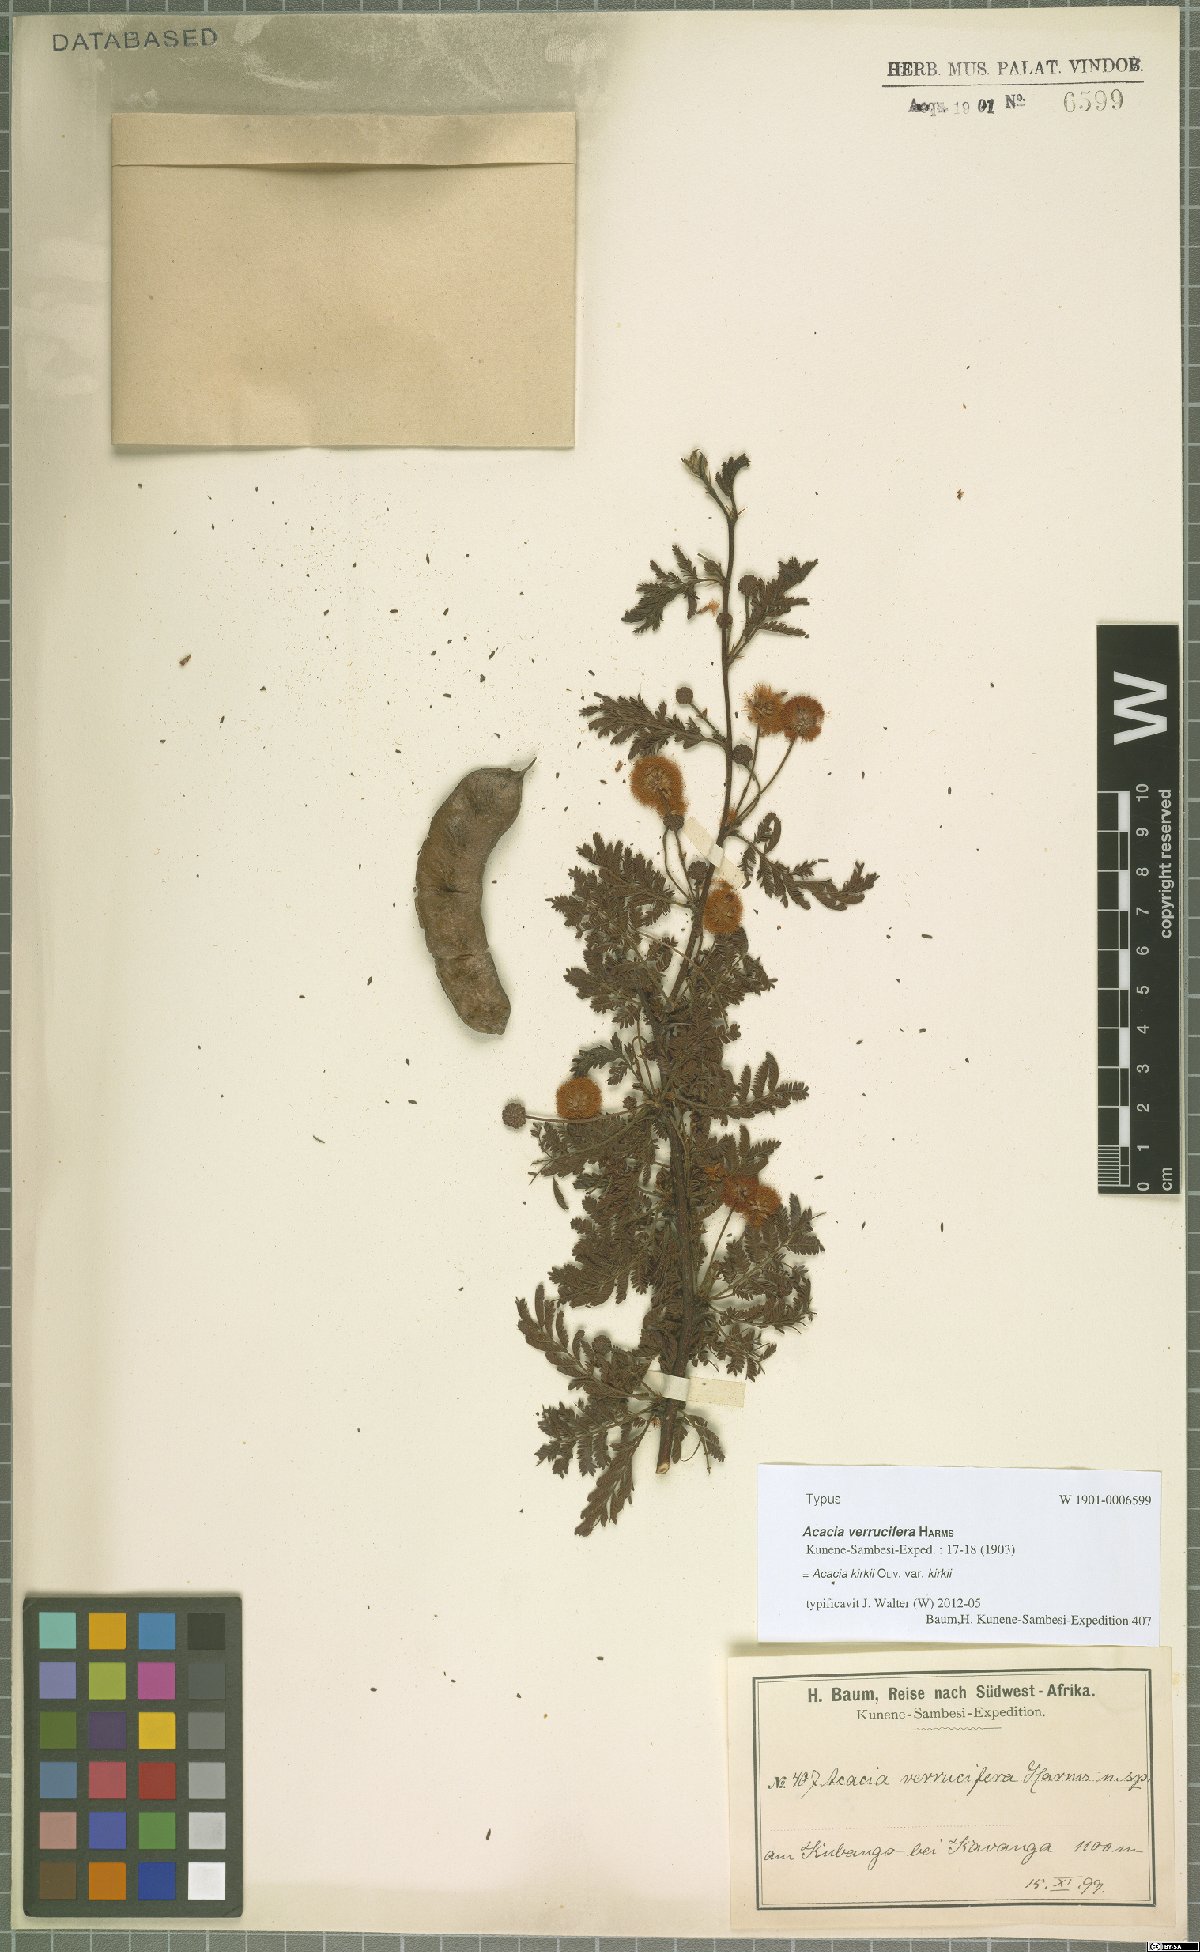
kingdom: Plantae
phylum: Tracheophyta
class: Magnoliopsida
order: Fabales
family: Fabaceae
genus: Vachellia
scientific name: Vachellia kirkii
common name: Flood-plain acacia
